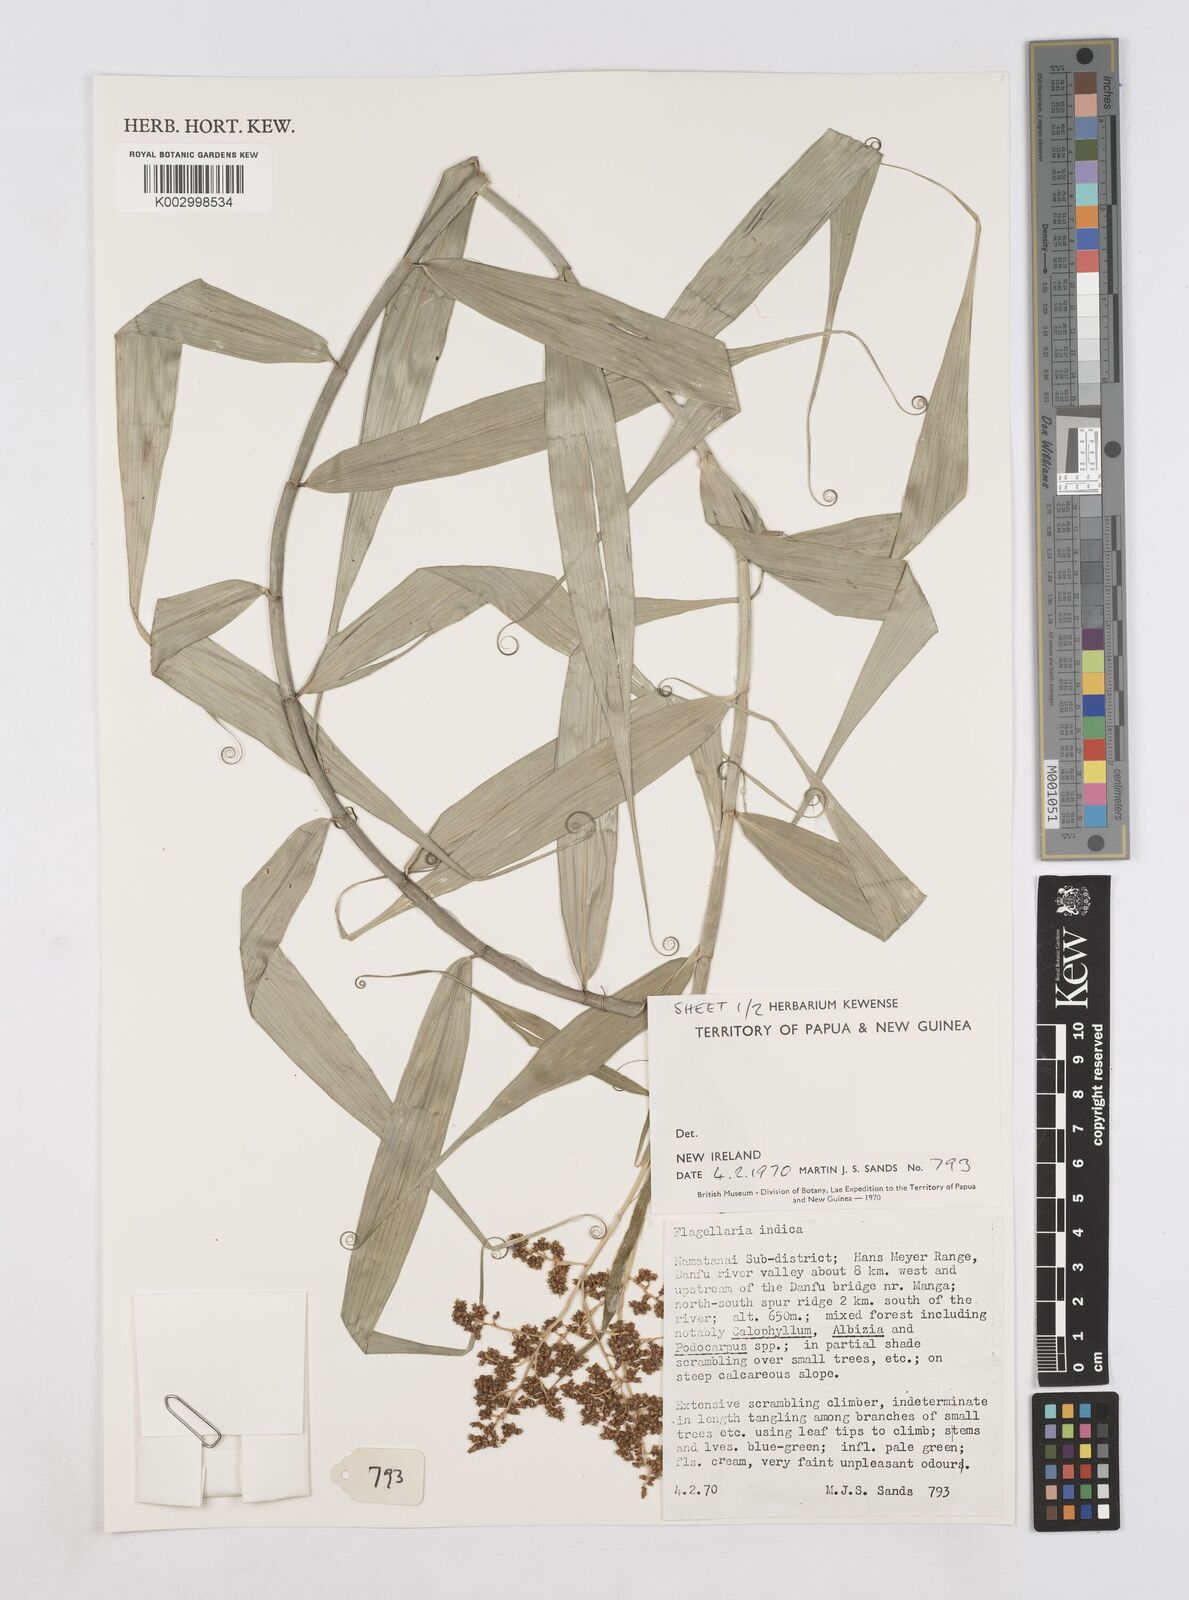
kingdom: Plantae
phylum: Tracheophyta
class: Liliopsida
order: Poales
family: Flagellariaceae
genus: Flagellaria
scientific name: Flagellaria indica
